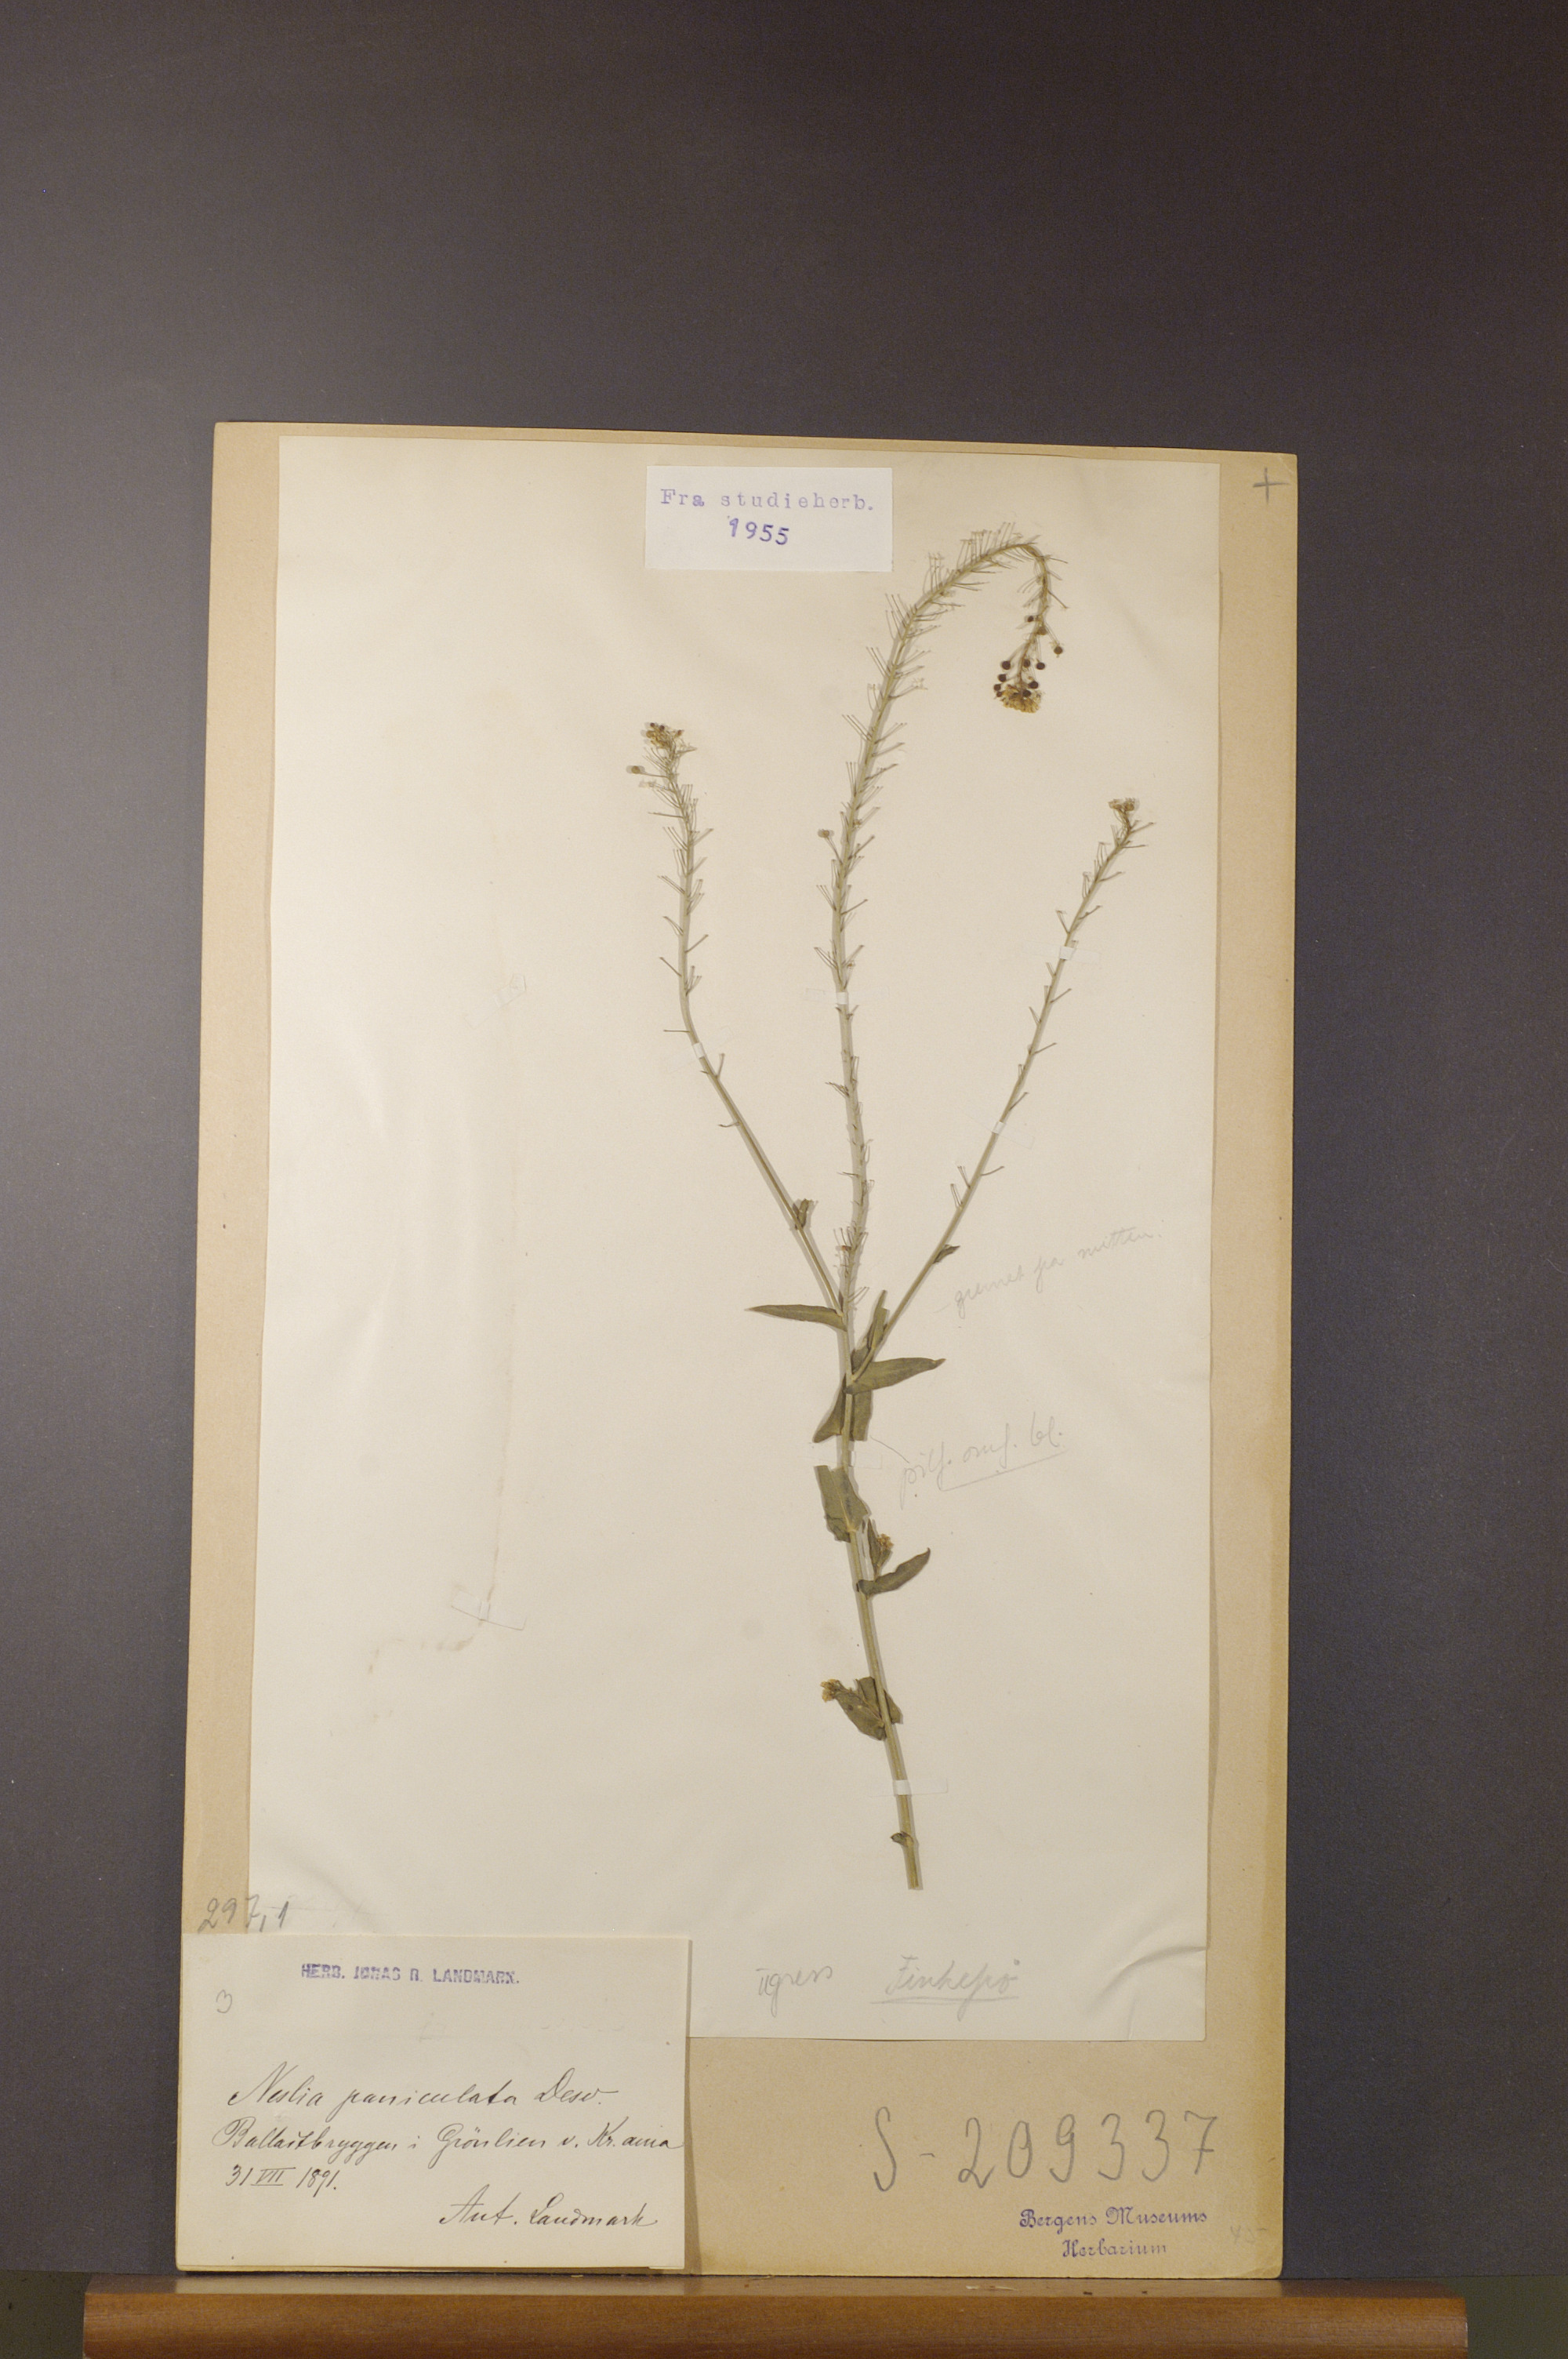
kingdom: Plantae
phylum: Tracheophyta
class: Magnoliopsida
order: Brassicales
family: Brassicaceae
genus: Neslia
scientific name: Neslia paniculata
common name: Ball mustard
